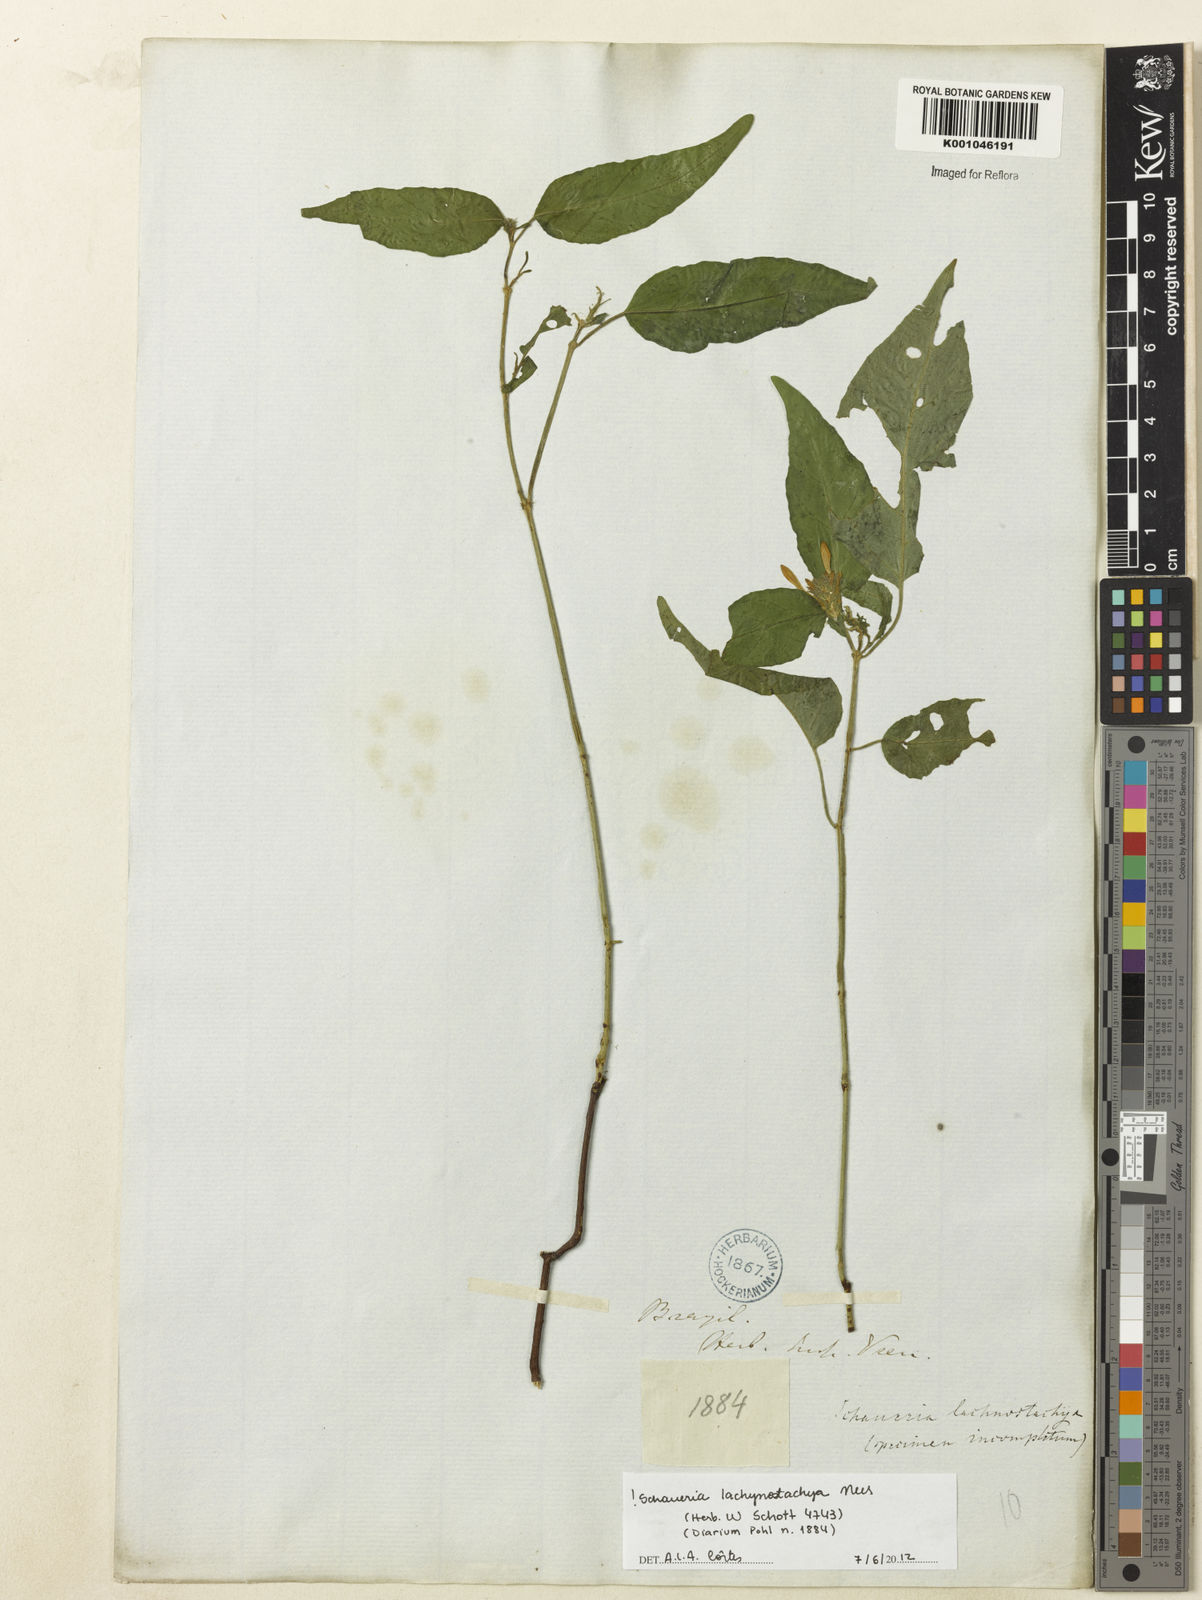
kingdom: Plantae
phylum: Tracheophyta
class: Magnoliopsida
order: Lamiales
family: Acanthaceae
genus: Schaueria
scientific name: Schaueria lachnostachya
